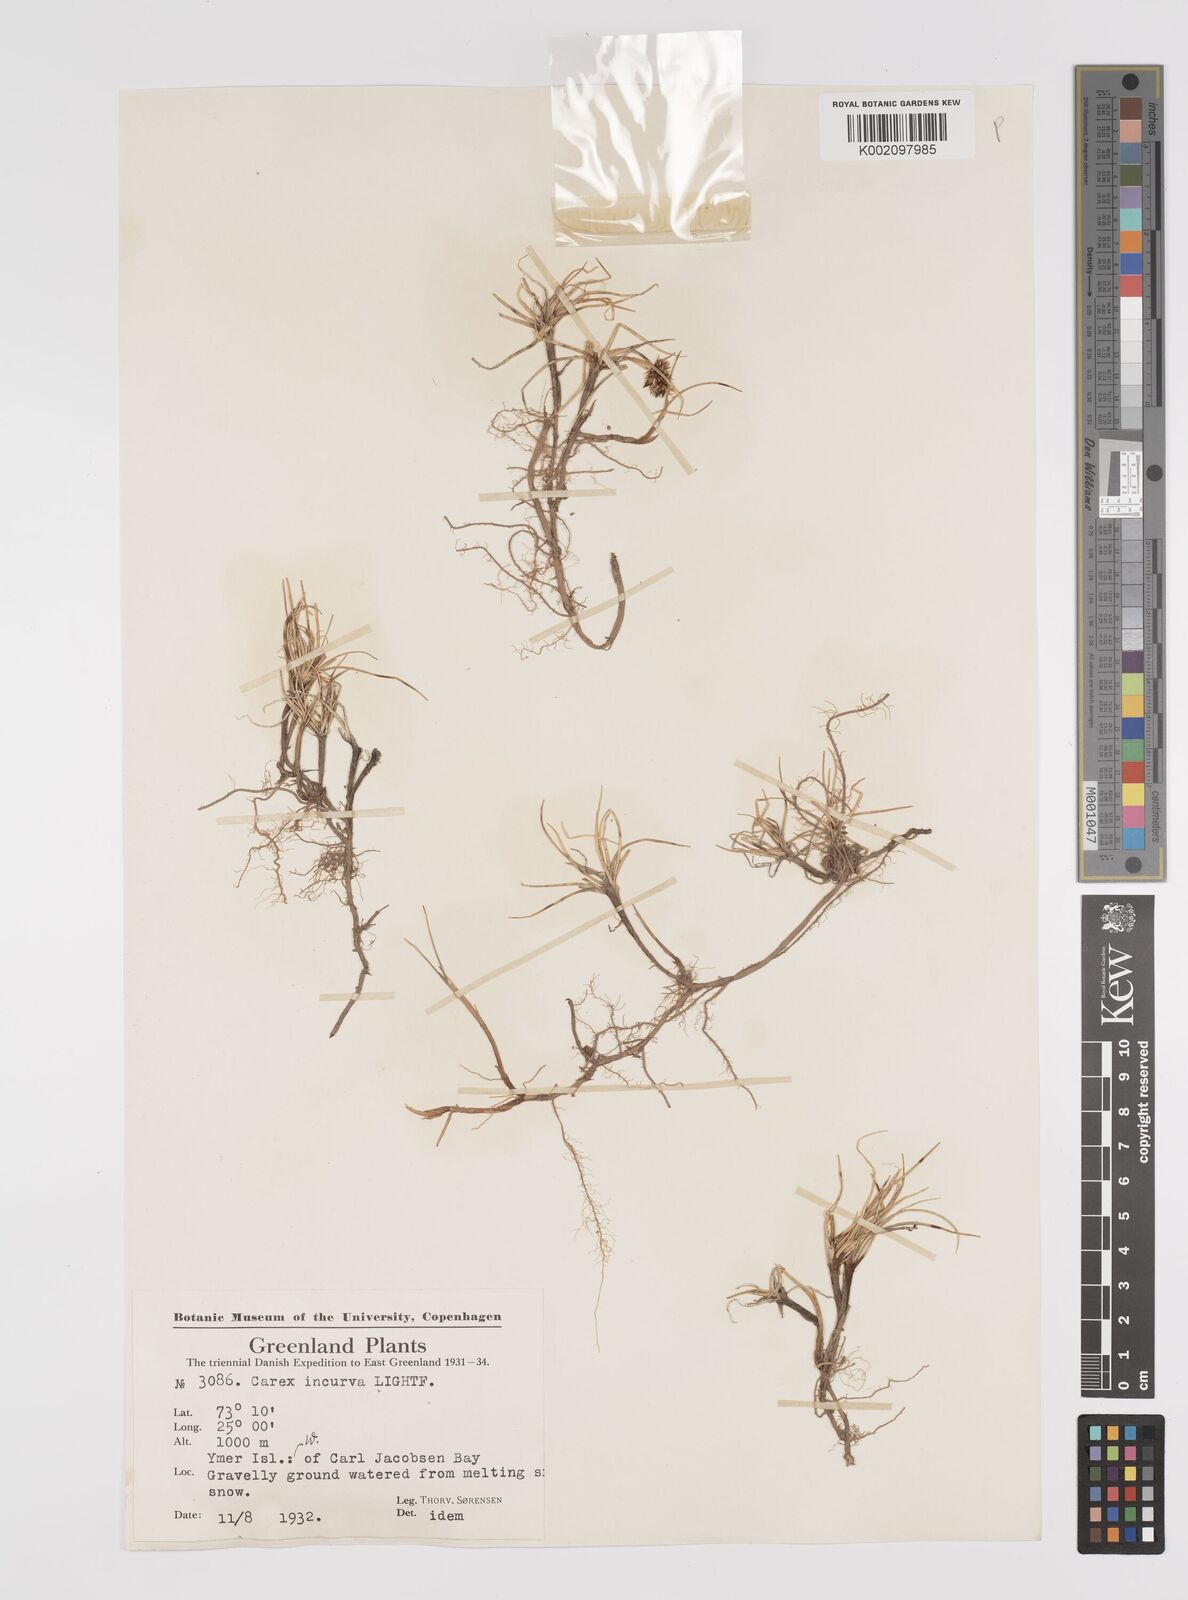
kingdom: Plantae
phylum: Tracheophyta
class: Liliopsida
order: Poales
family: Cyperaceae
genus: Carex
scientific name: Carex maritima
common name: Curved sedge
